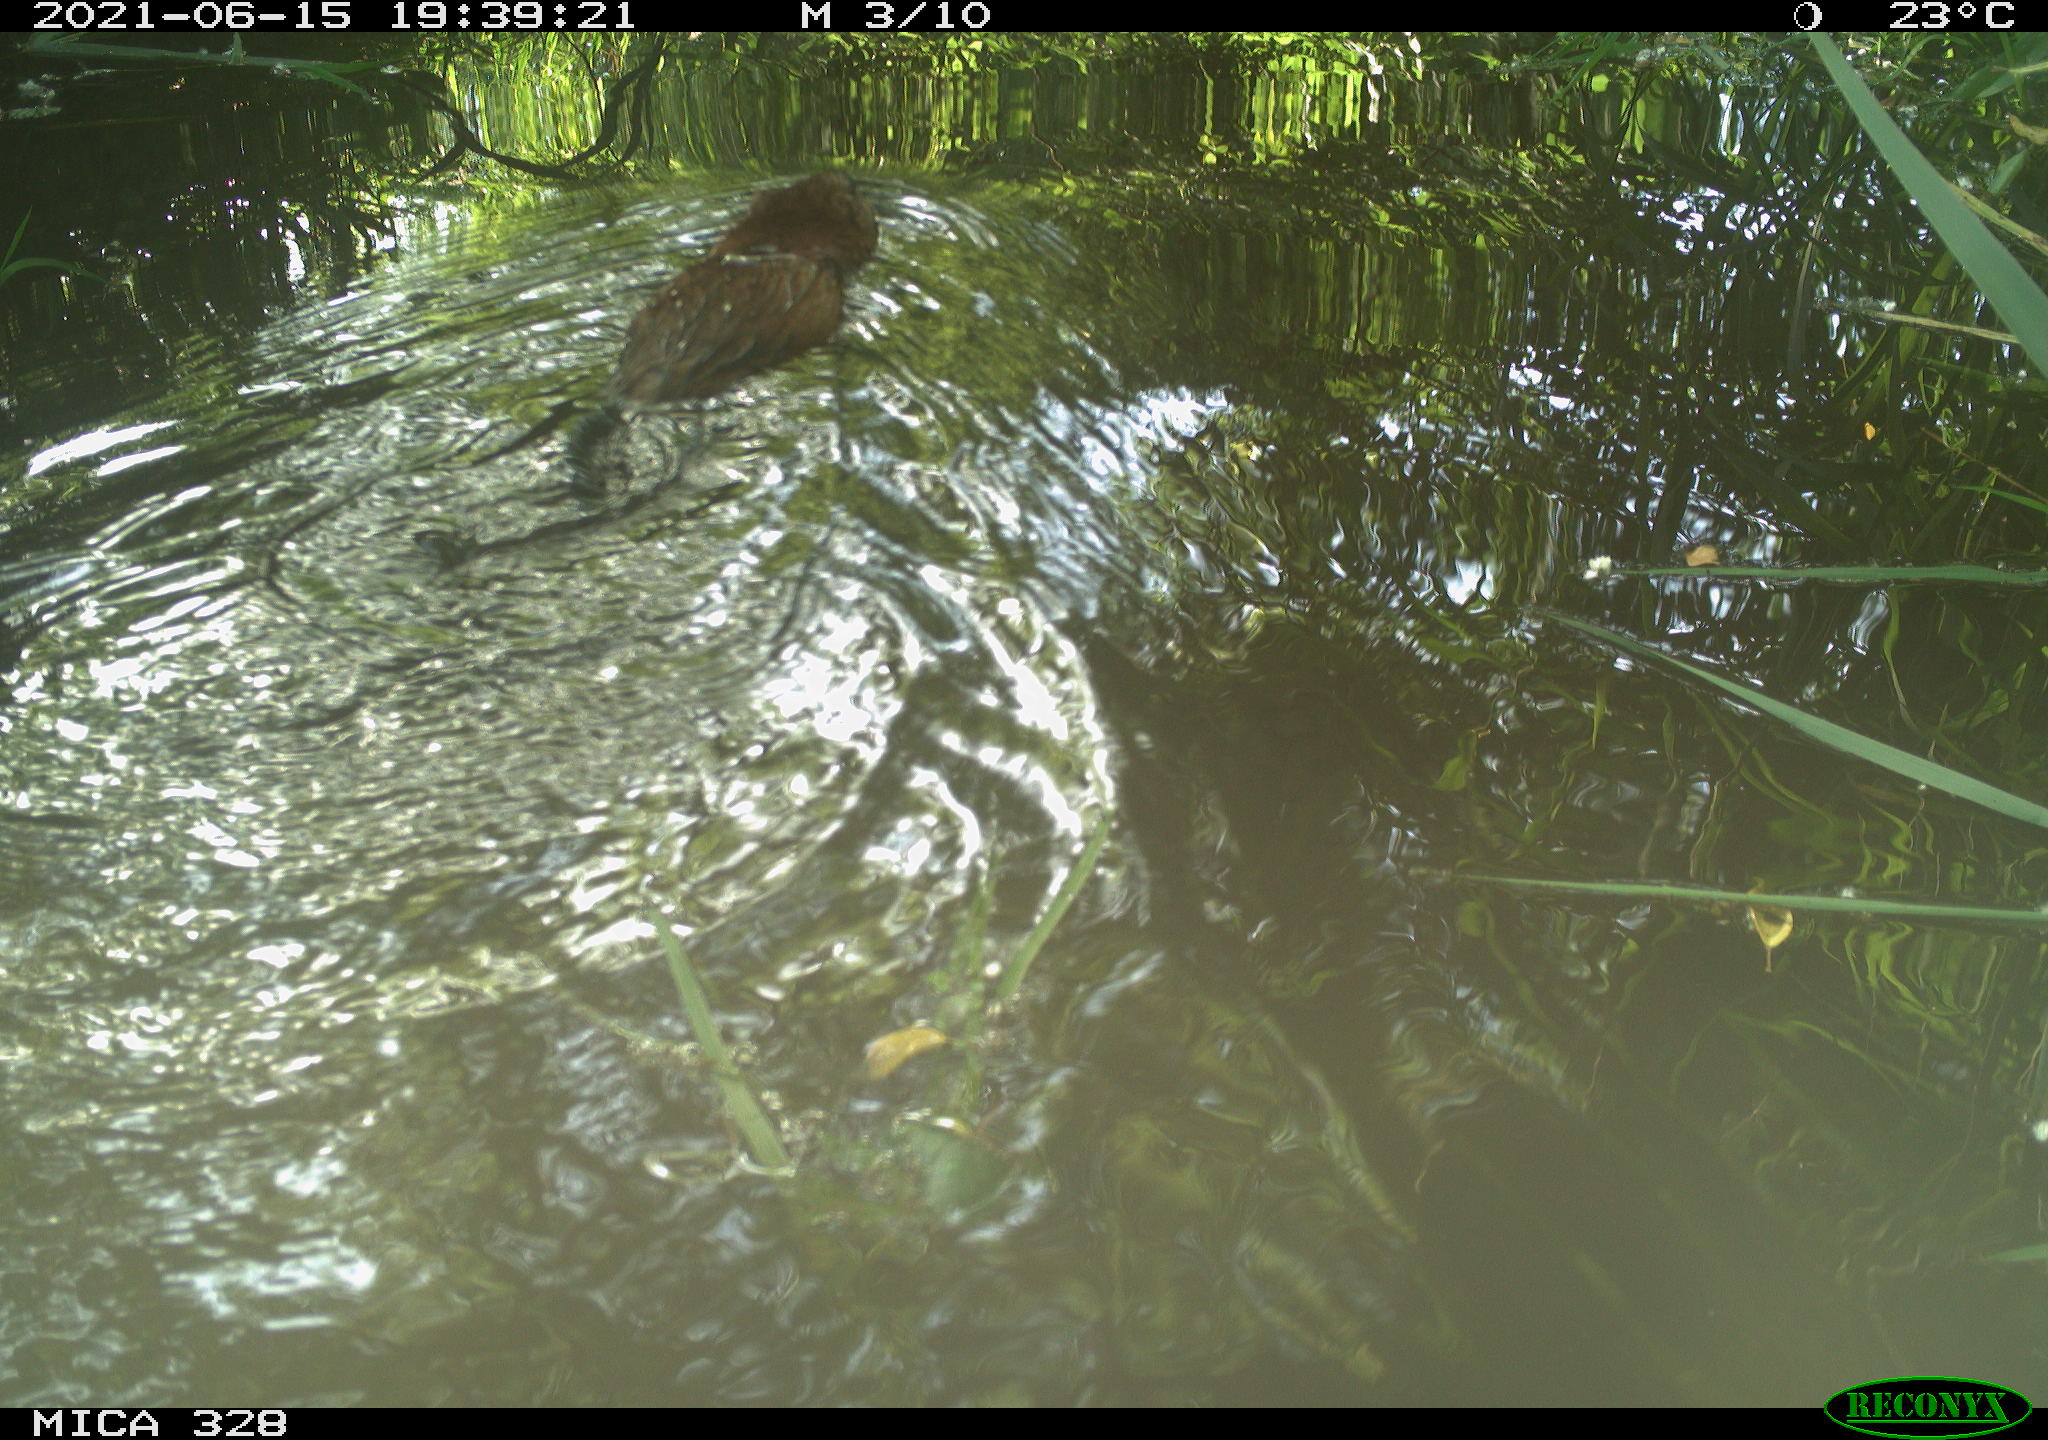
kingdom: Animalia
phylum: Chordata
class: Mammalia
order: Rodentia
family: Cricetidae
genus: Ondatra
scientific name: Ondatra zibethicus
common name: Muskrat
